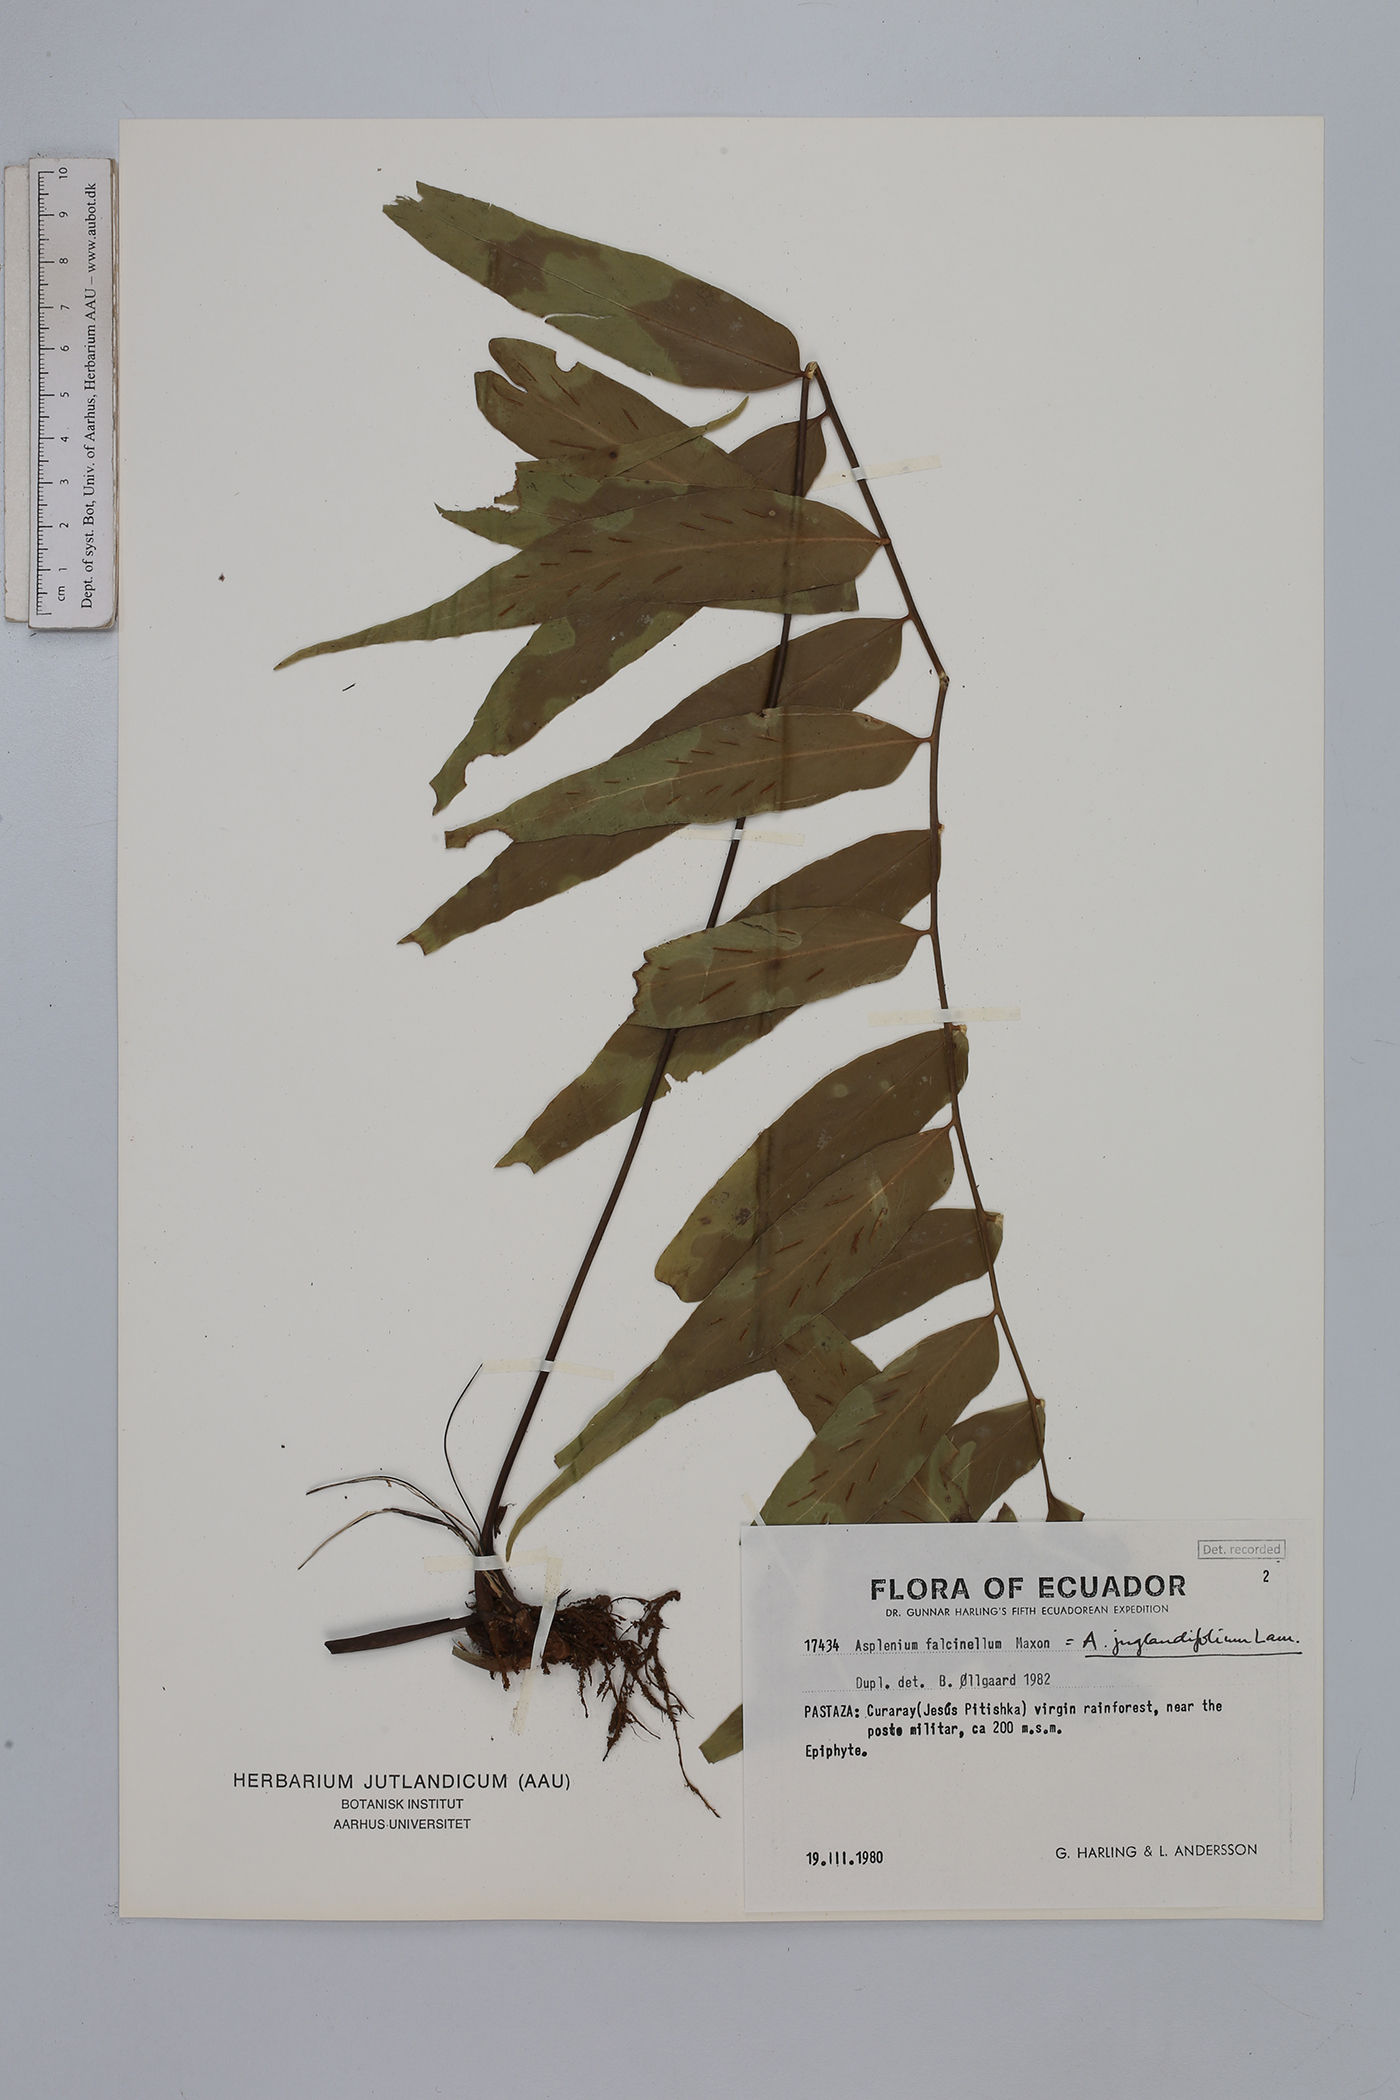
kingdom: Plantae
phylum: Tracheophyta
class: Polypodiopsida
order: Polypodiales
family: Aspleniaceae
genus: Asplenium
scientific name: Asplenium juglandifolium
